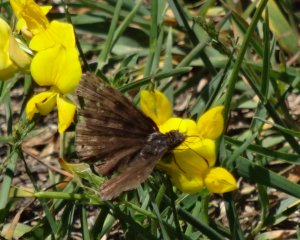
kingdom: Animalia
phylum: Arthropoda
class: Insecta
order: Lepidoptera
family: Hesperiidae
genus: Gesta
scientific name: Gesta
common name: Juvenal's Duskywing
